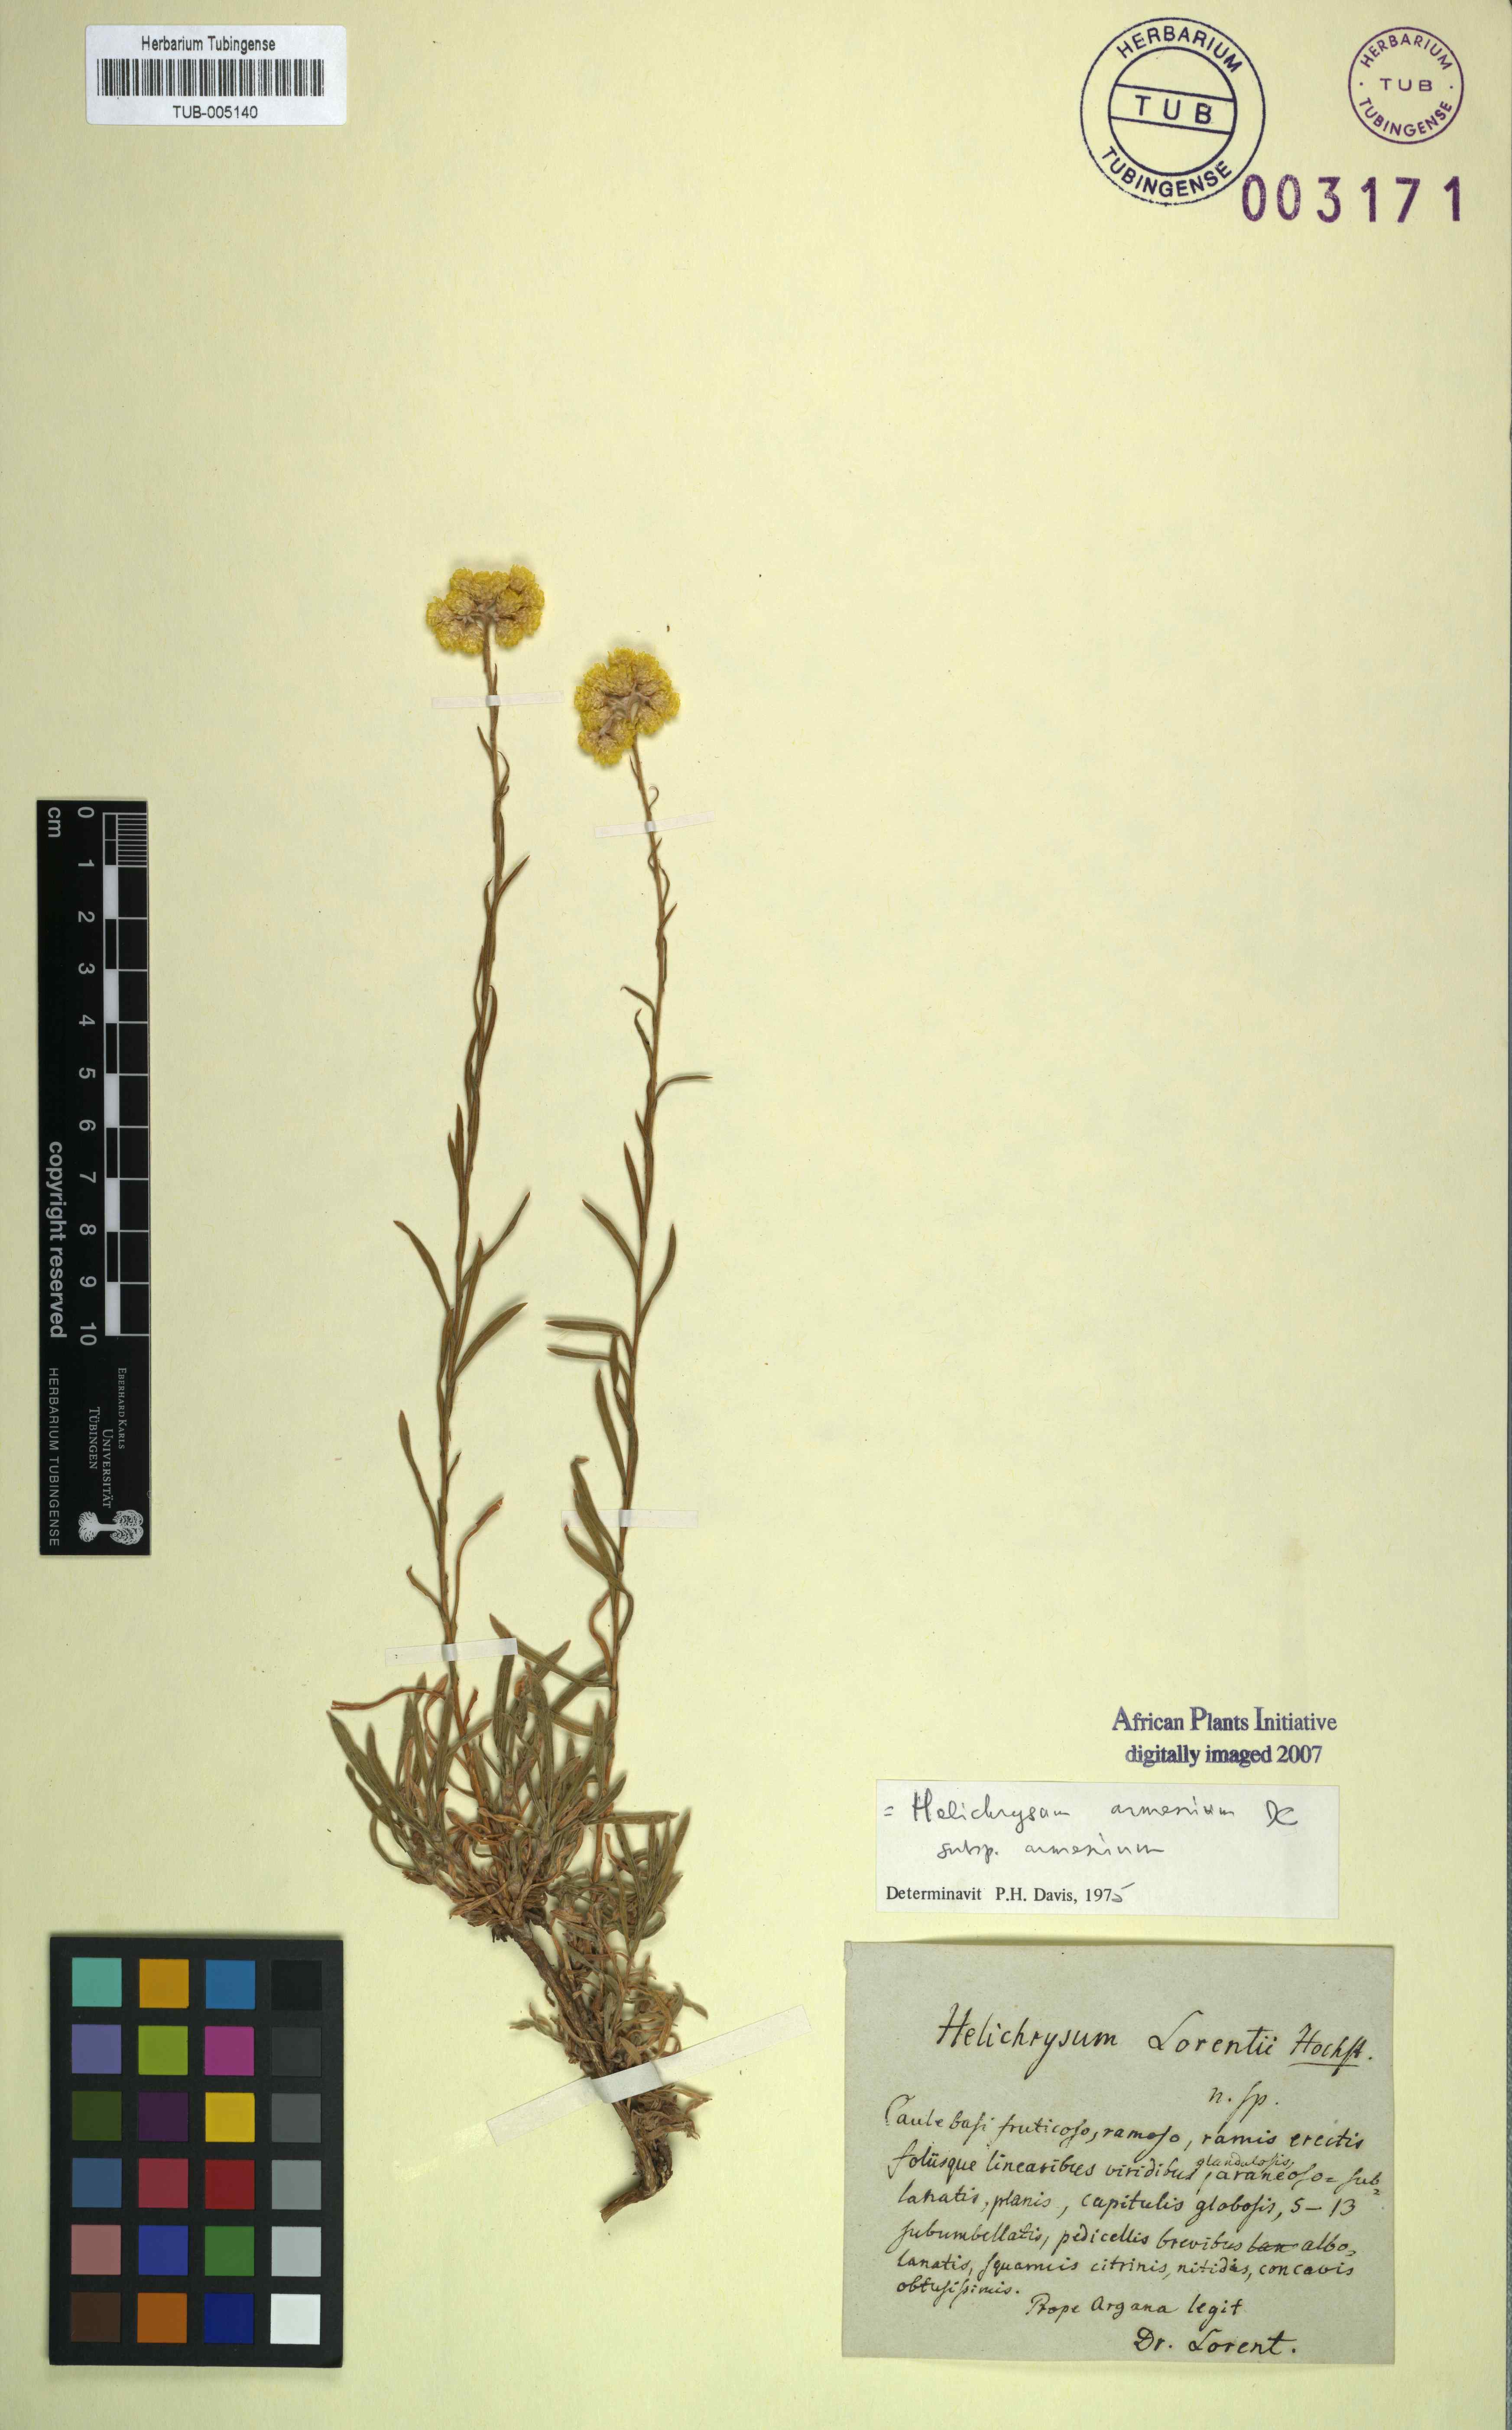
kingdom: Plantae
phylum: Tracheophyta
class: Magnoliopsida
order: Asterales
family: Asteraceae
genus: Helichrysum
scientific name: Helichrysum armenium
